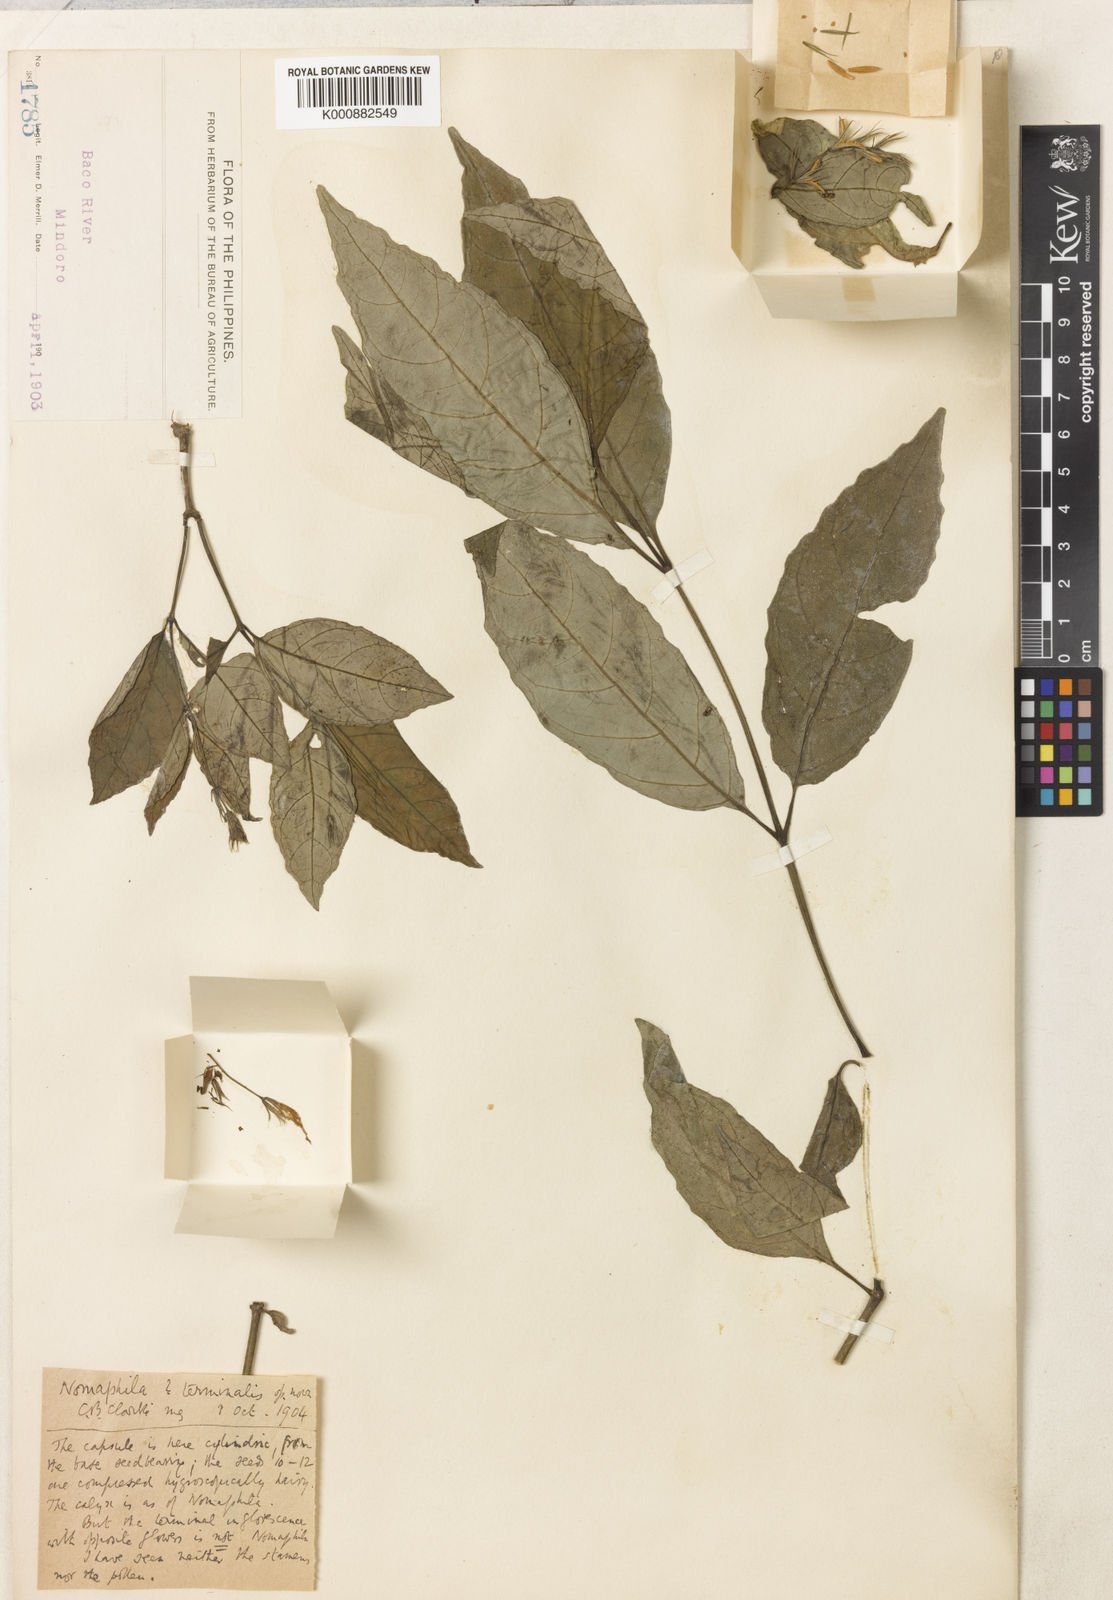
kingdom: Plantae
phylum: Tracheophyta
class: Magnoliopsida
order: Lamiales
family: Acanthaceae
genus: Hygrophila
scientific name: Hygrophila
